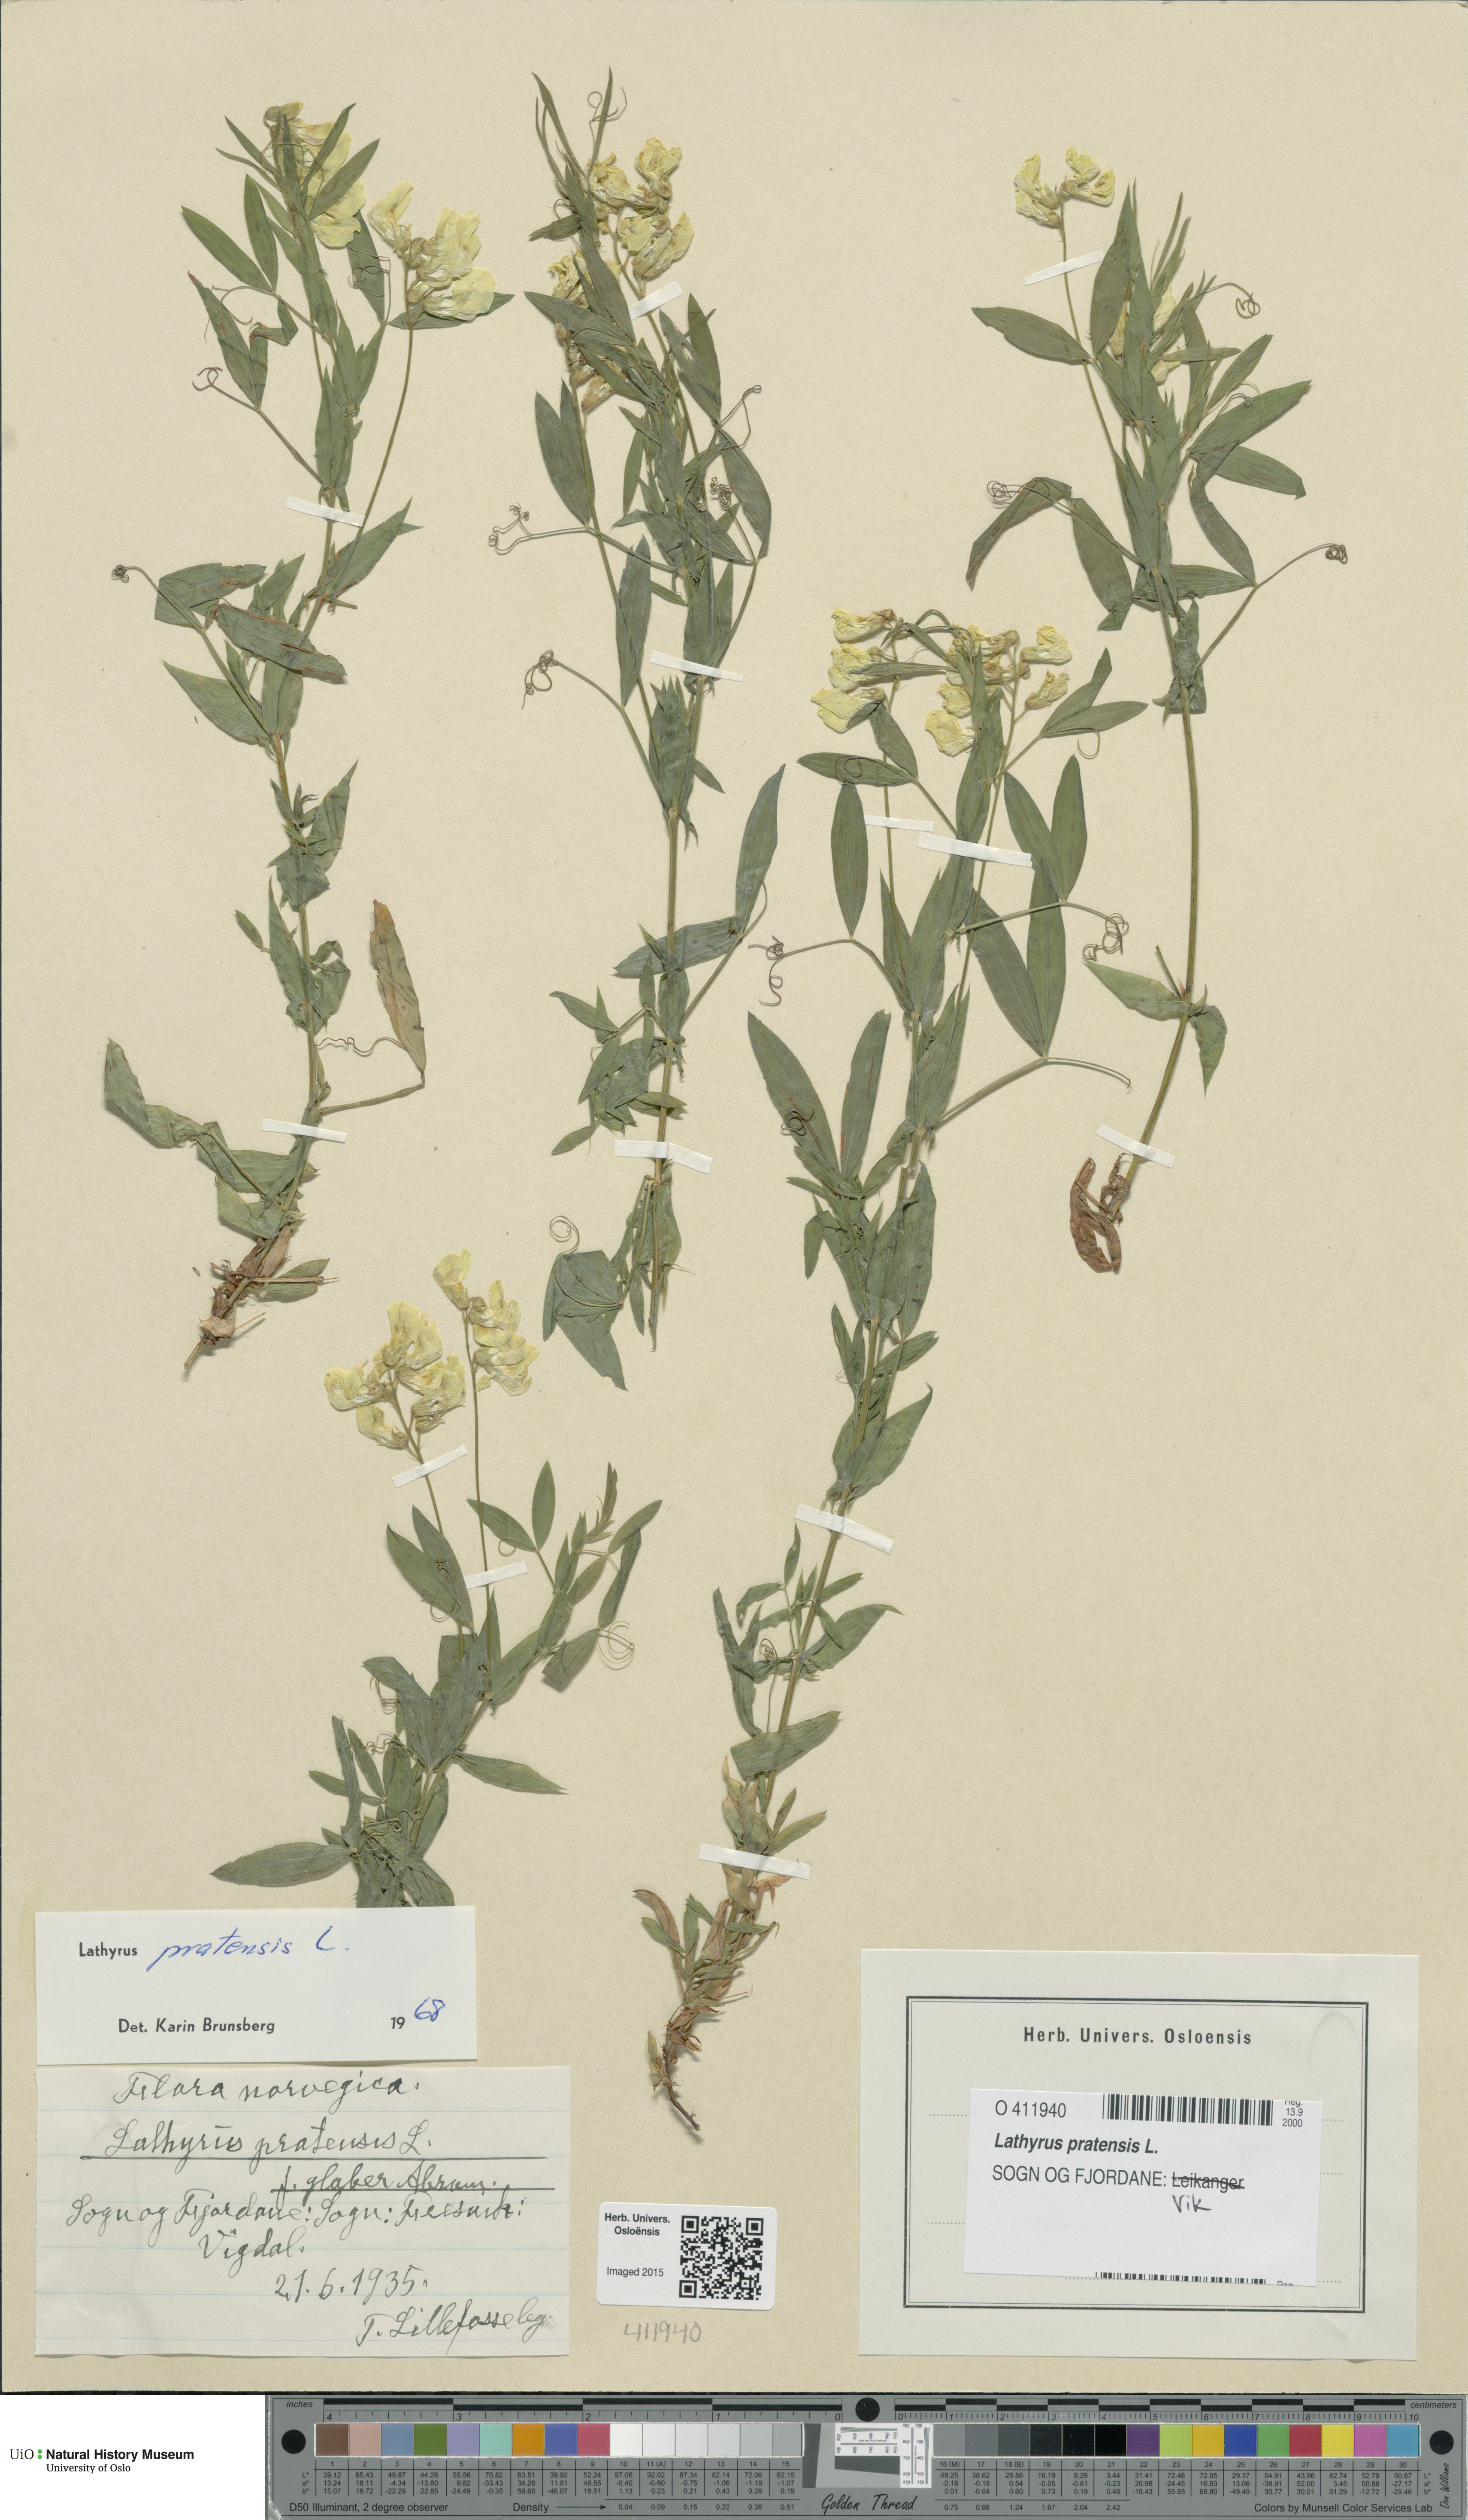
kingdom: Plantae
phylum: Tracheophyta
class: Magnoliopsida
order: Fabales
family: Fabaceae
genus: Lathyrus
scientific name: Lathyrus pratensis
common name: Meadow vetchling
